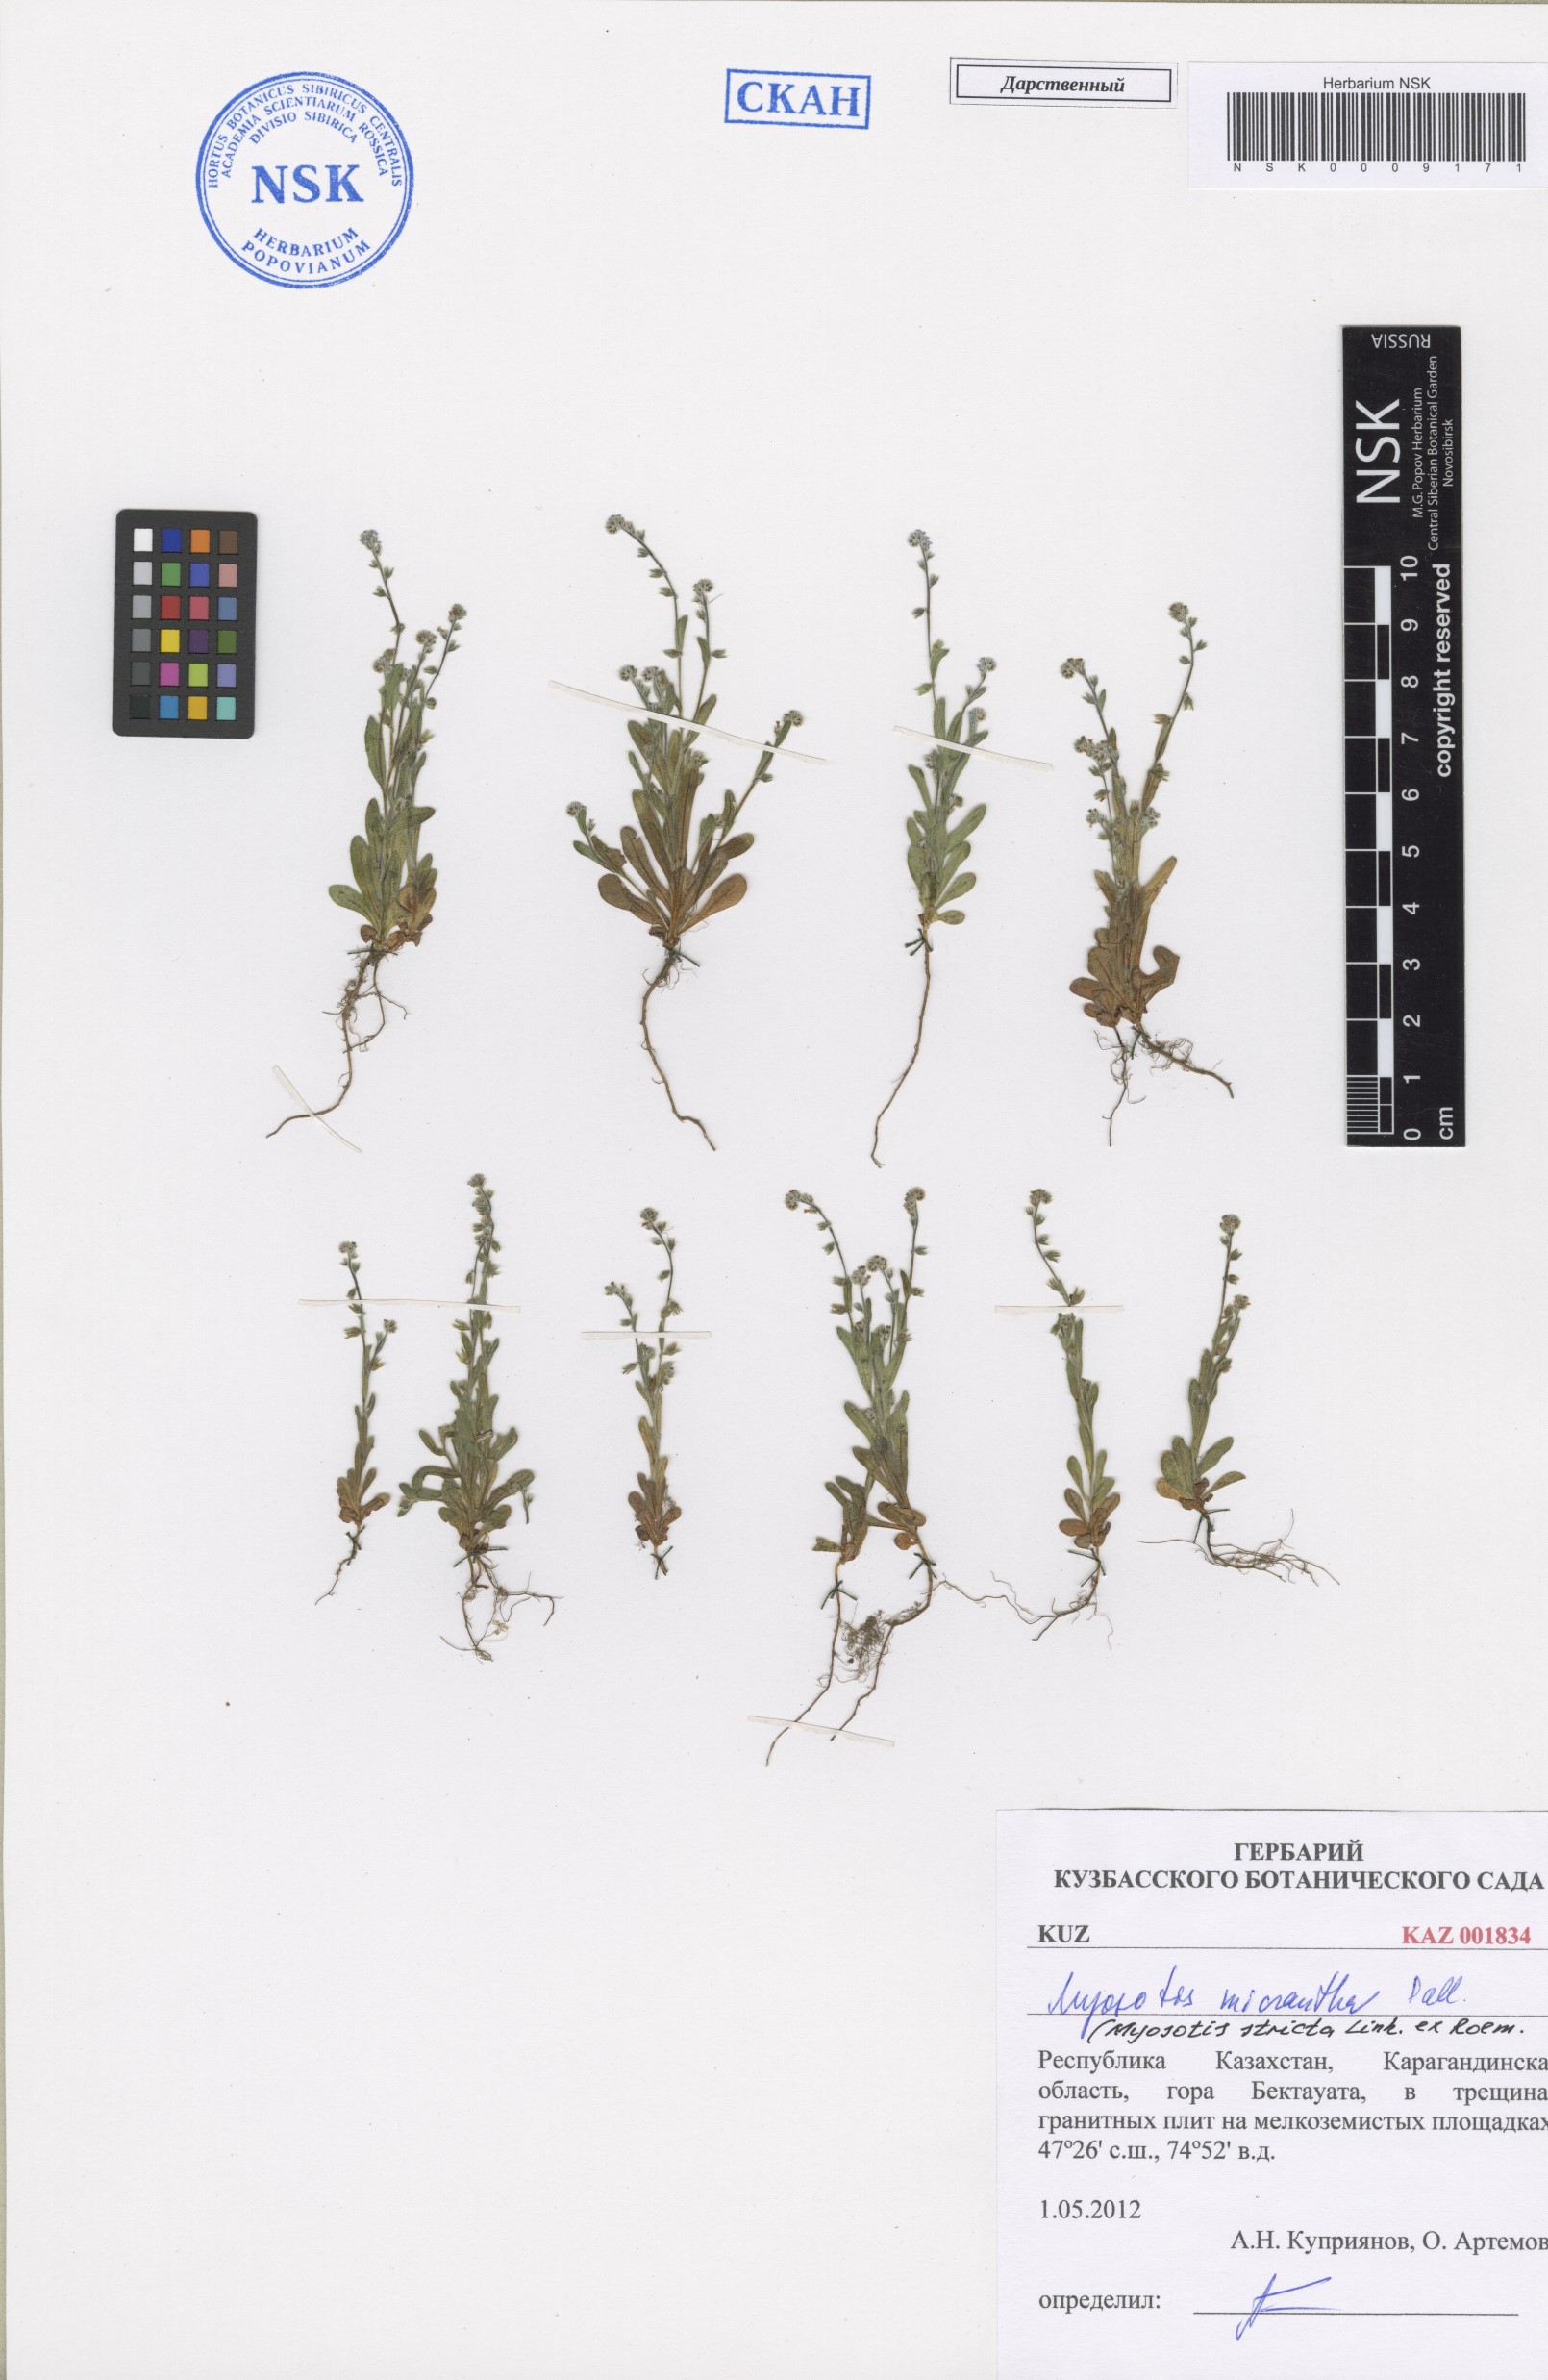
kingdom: Plantae
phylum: Tracheophyta
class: Magnoliopsida
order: Boraginales
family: Boraginaceae
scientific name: Boraginaceae
